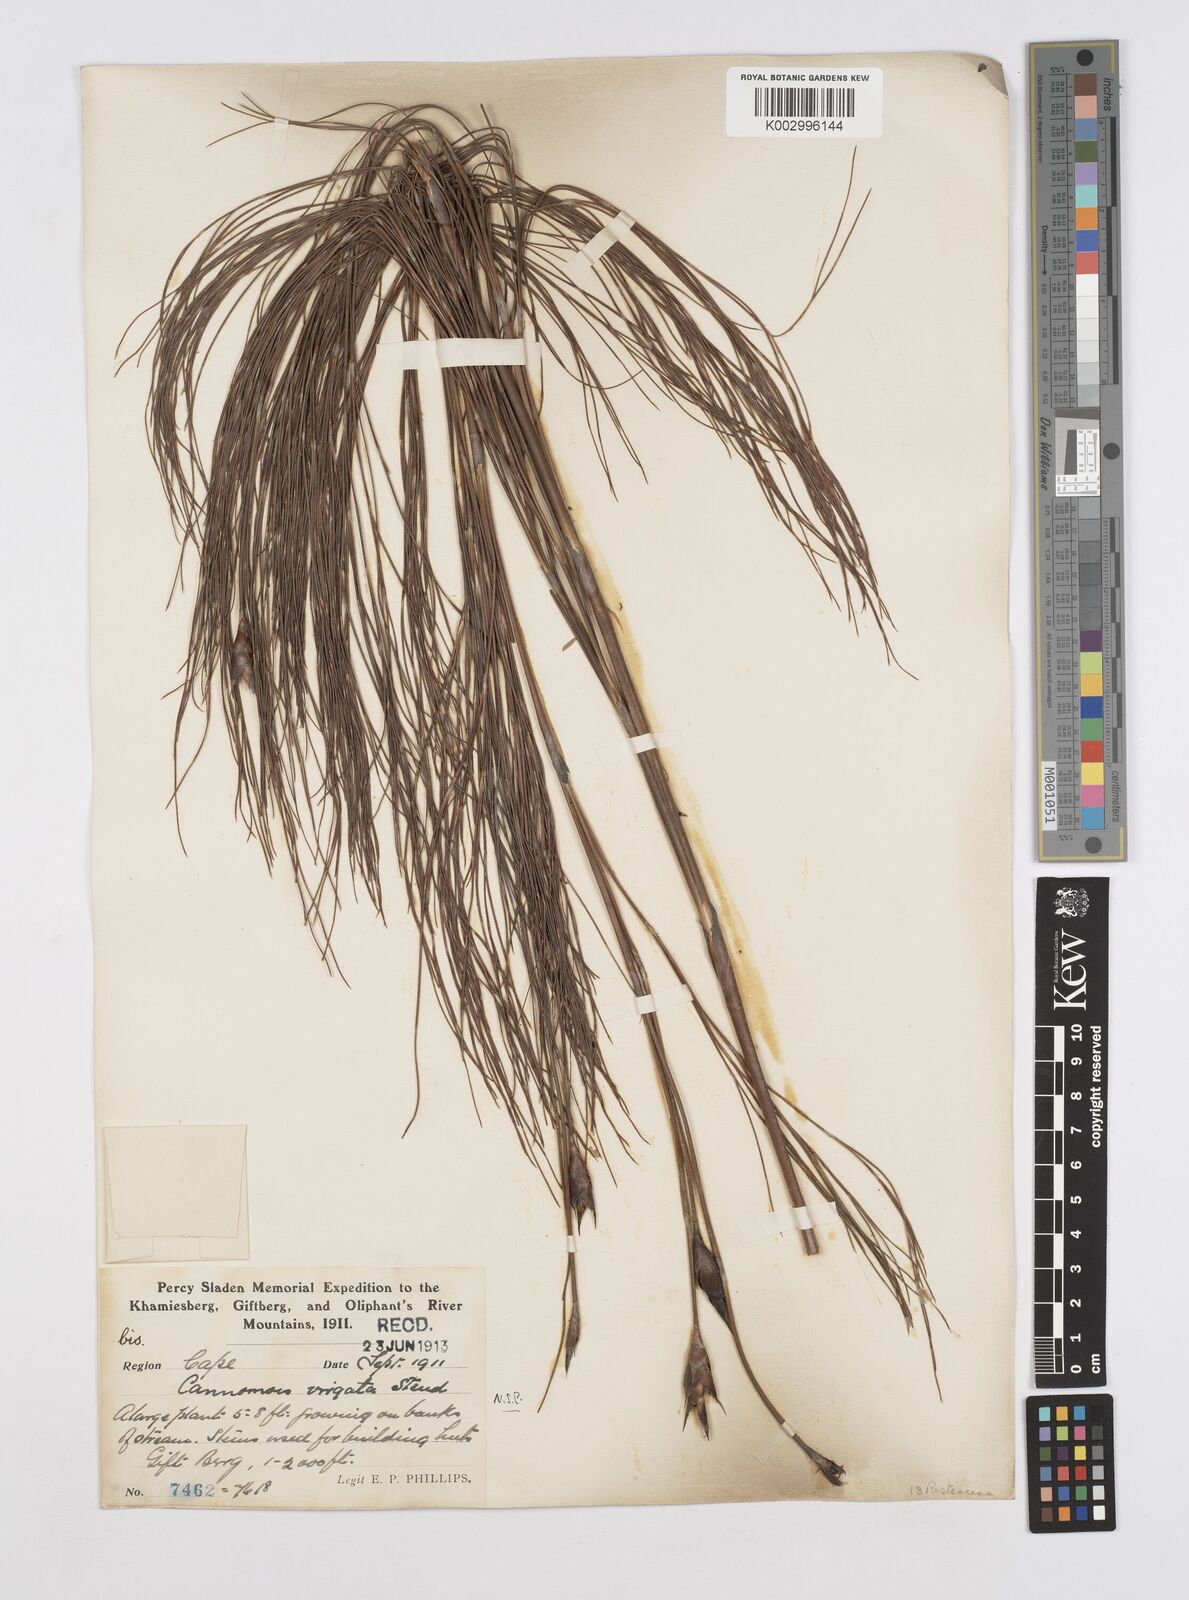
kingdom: Plantae
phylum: Tracheophyta
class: Liliopsida
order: Poales
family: Restionaceae
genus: Cannomois
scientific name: Cannomois virgata
